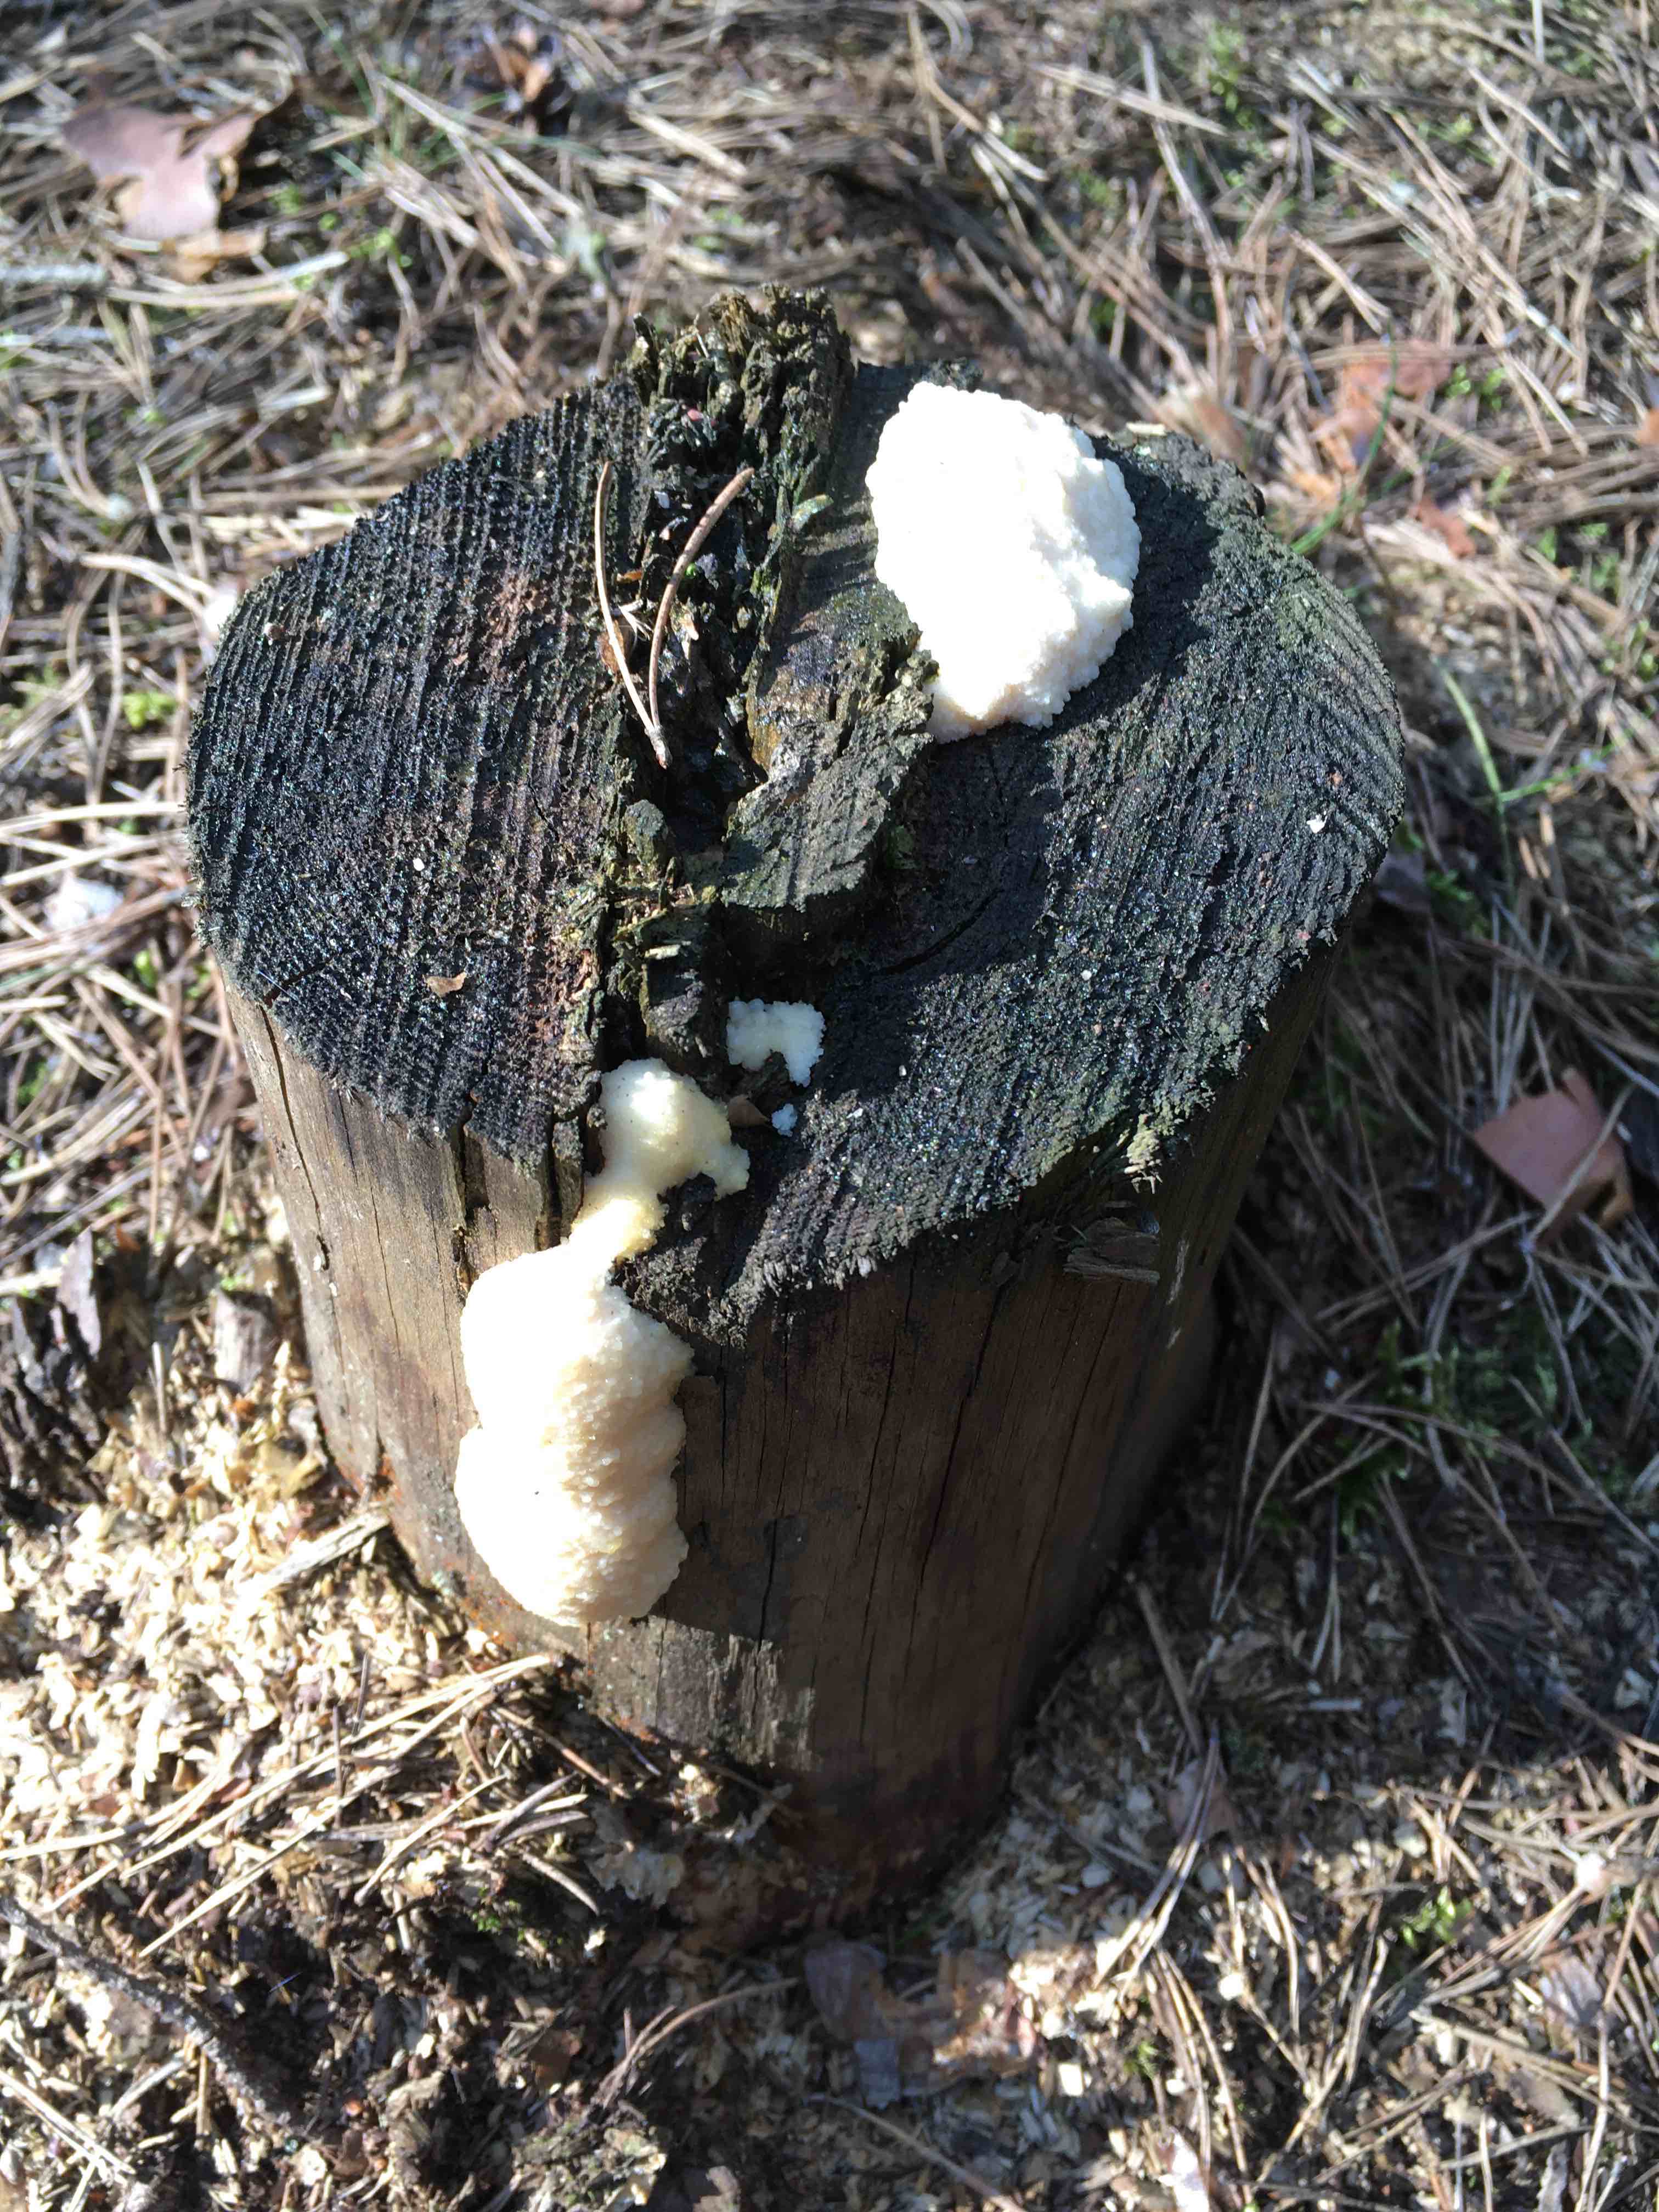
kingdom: Protozoa
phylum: Mycetozoa
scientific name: Mycetozoa
